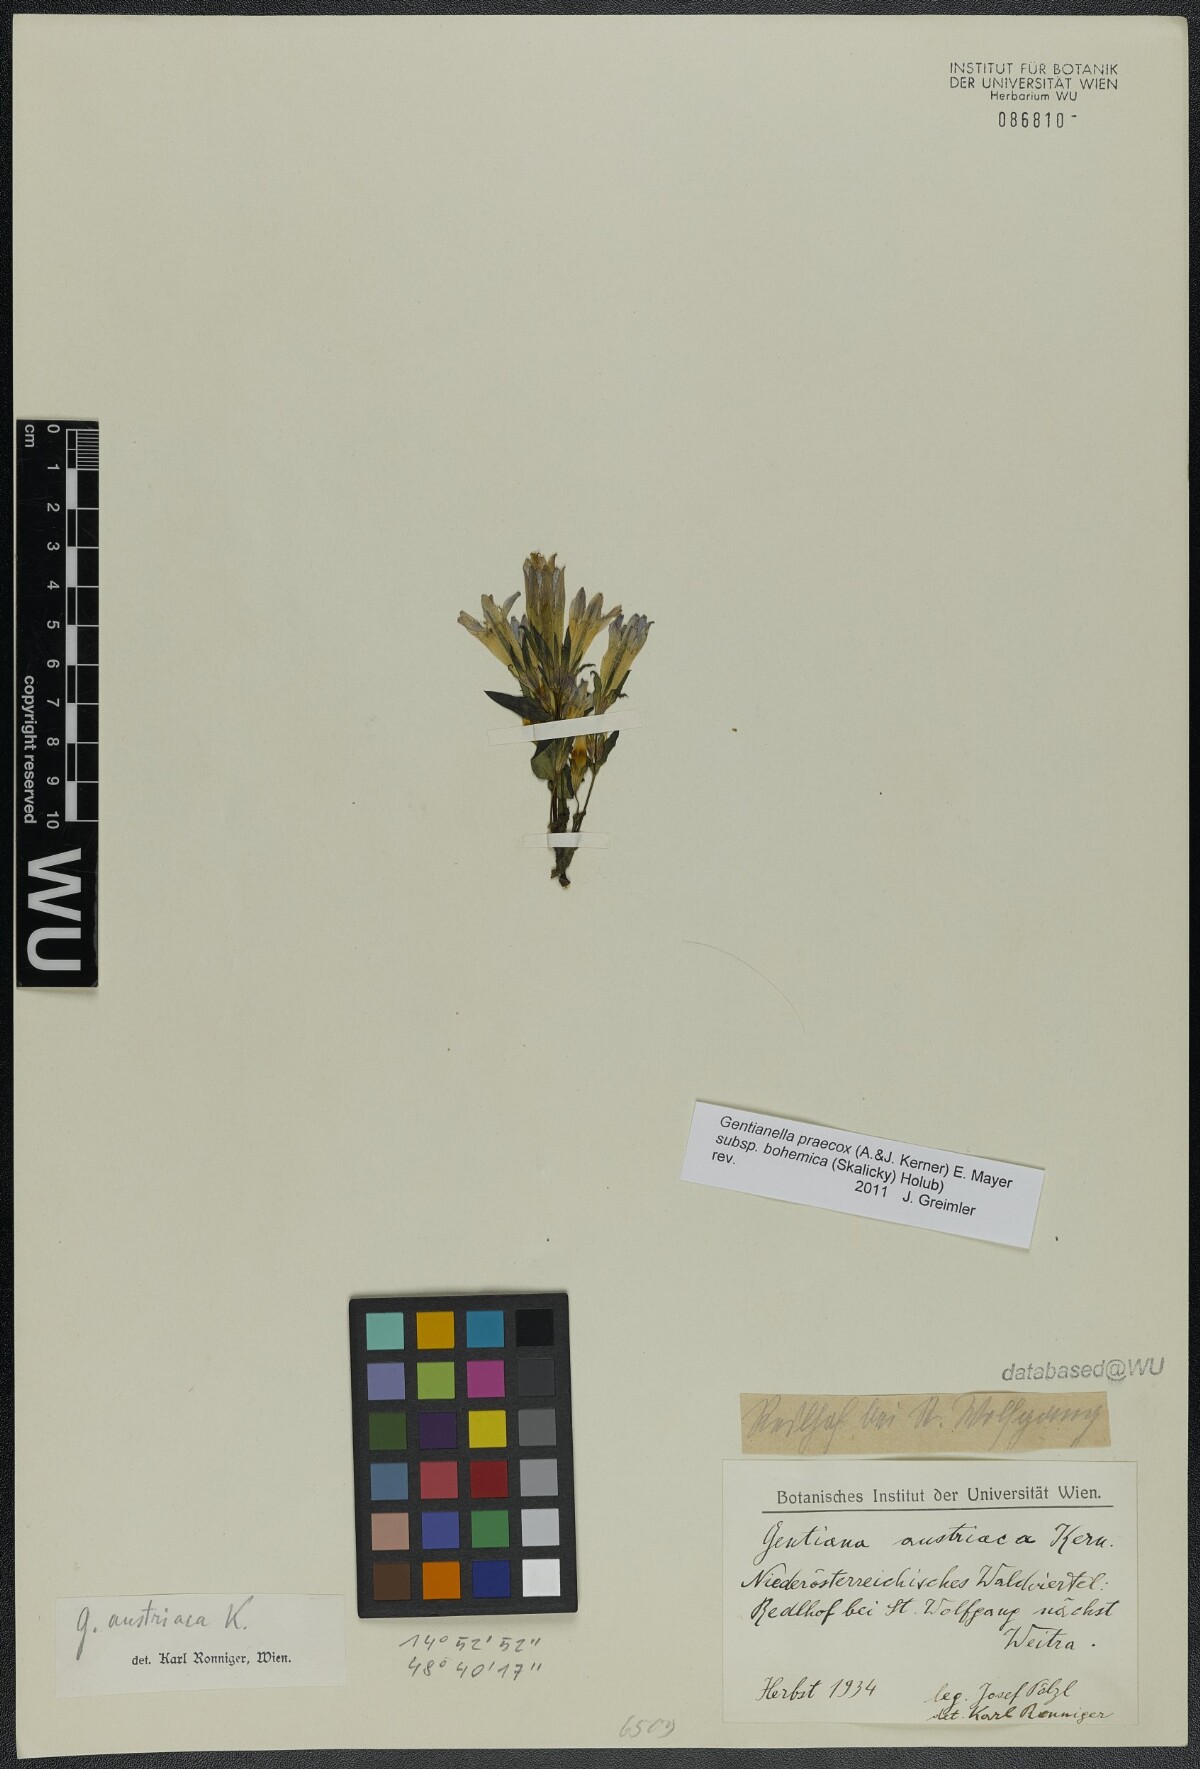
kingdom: Plantae
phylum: Tracheophyta
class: Magnoliopsida
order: Gentianales
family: Gentianaceae
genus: Gentianella
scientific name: Gentianella praecox
